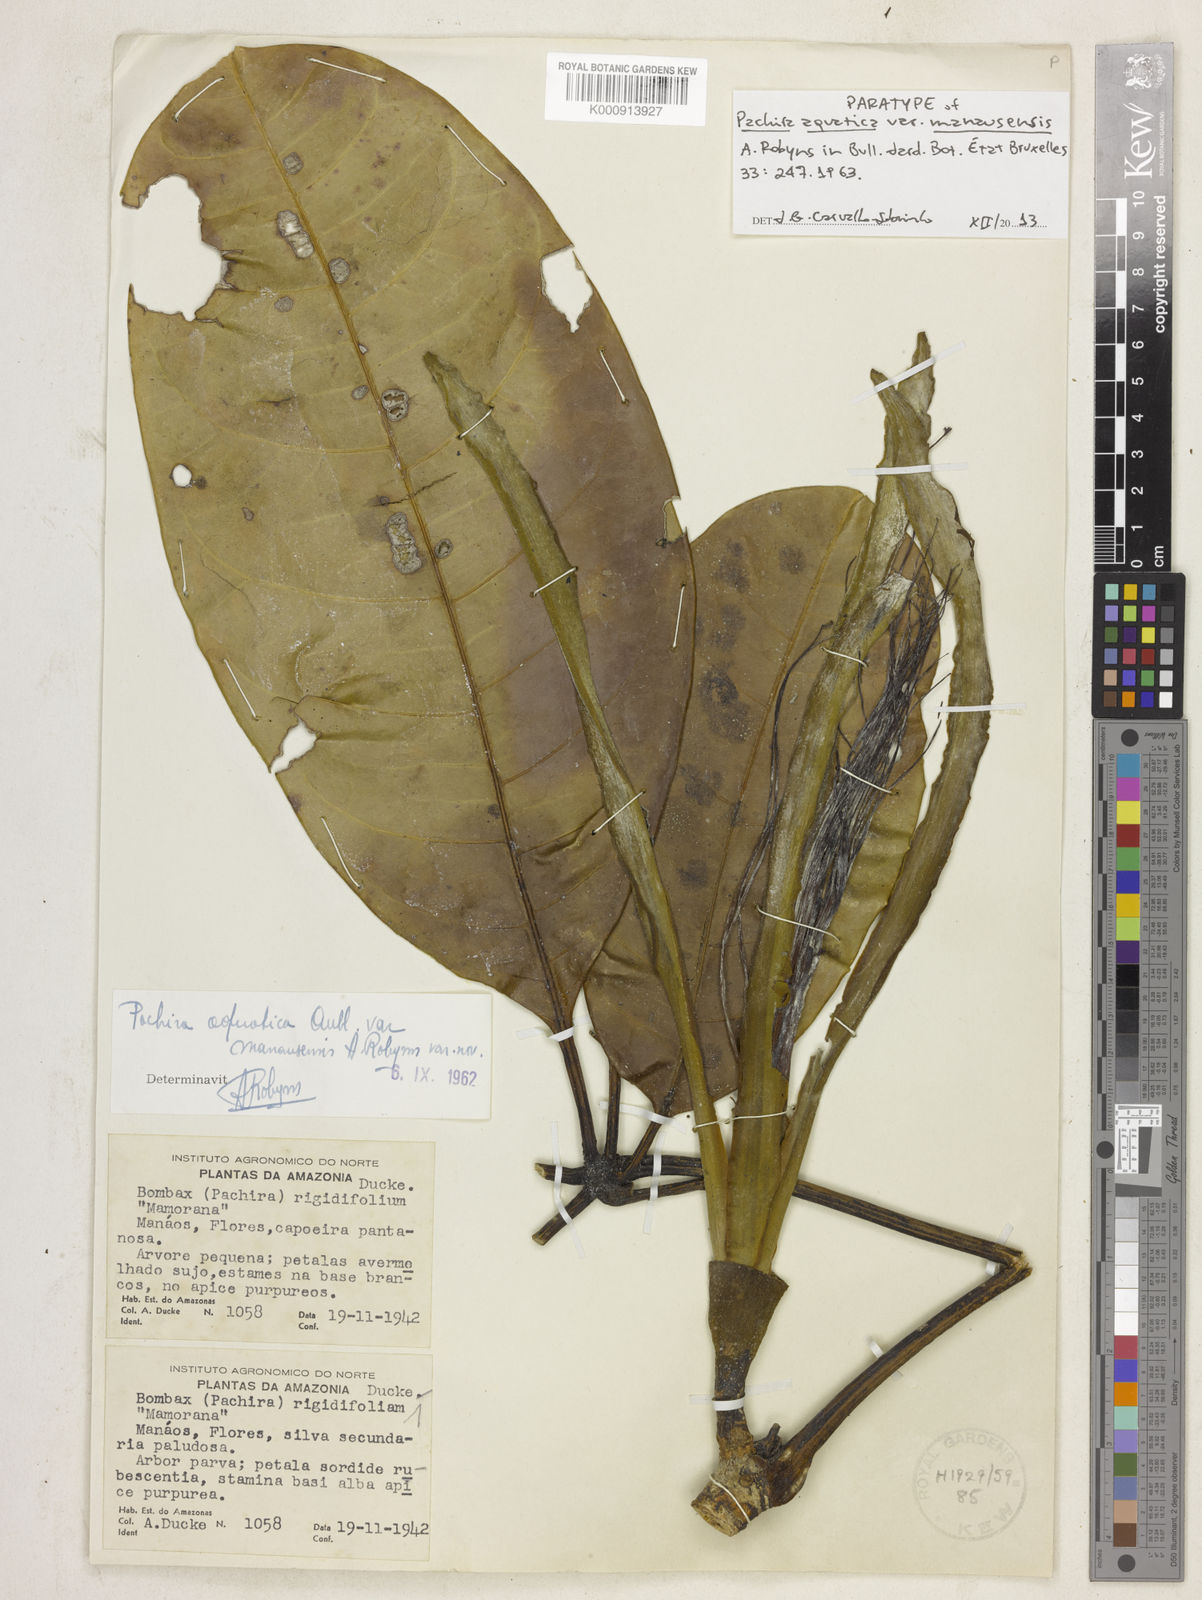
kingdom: Plantae
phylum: Tracheophyta
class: Magnoliopsida
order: Malvales
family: Malvaceae
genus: Pachira
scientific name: Pachira
